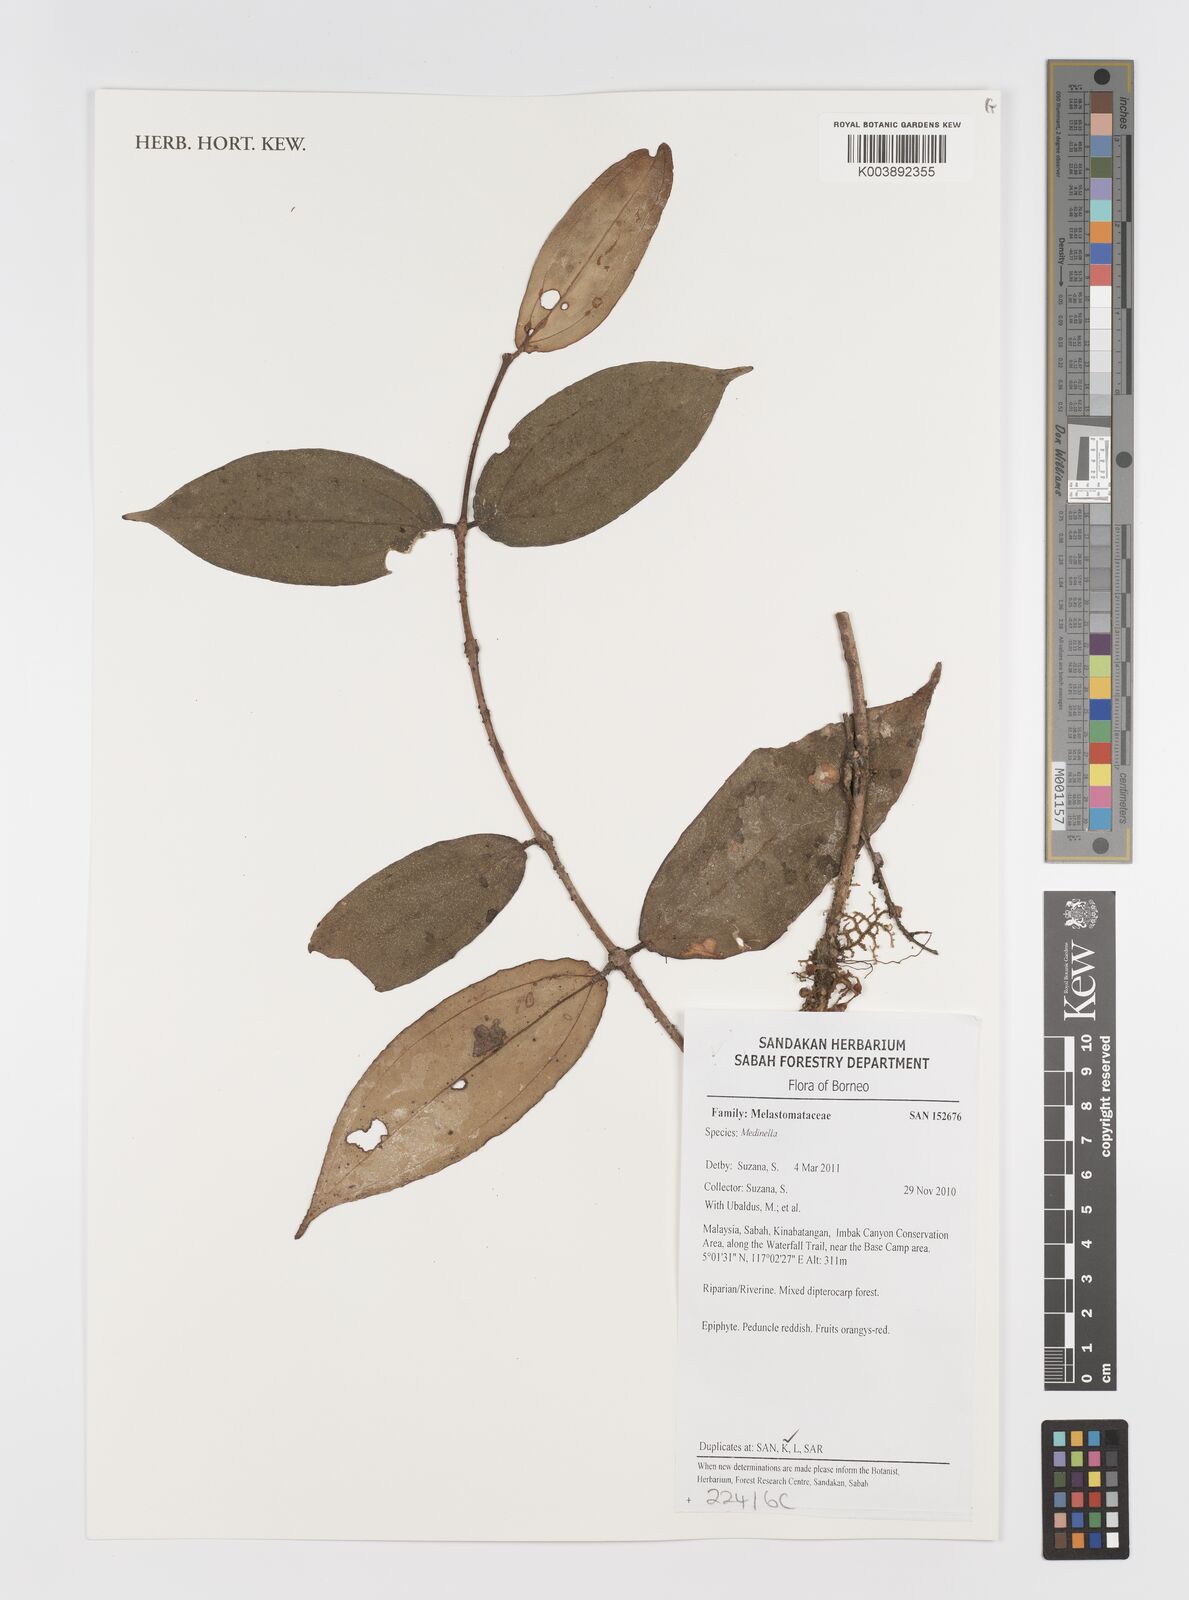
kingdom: Plantae
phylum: Tracheophyta
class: Magnoliopsida
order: Myrtales
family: Melastomataceae
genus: Medinilla
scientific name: Medinilla
